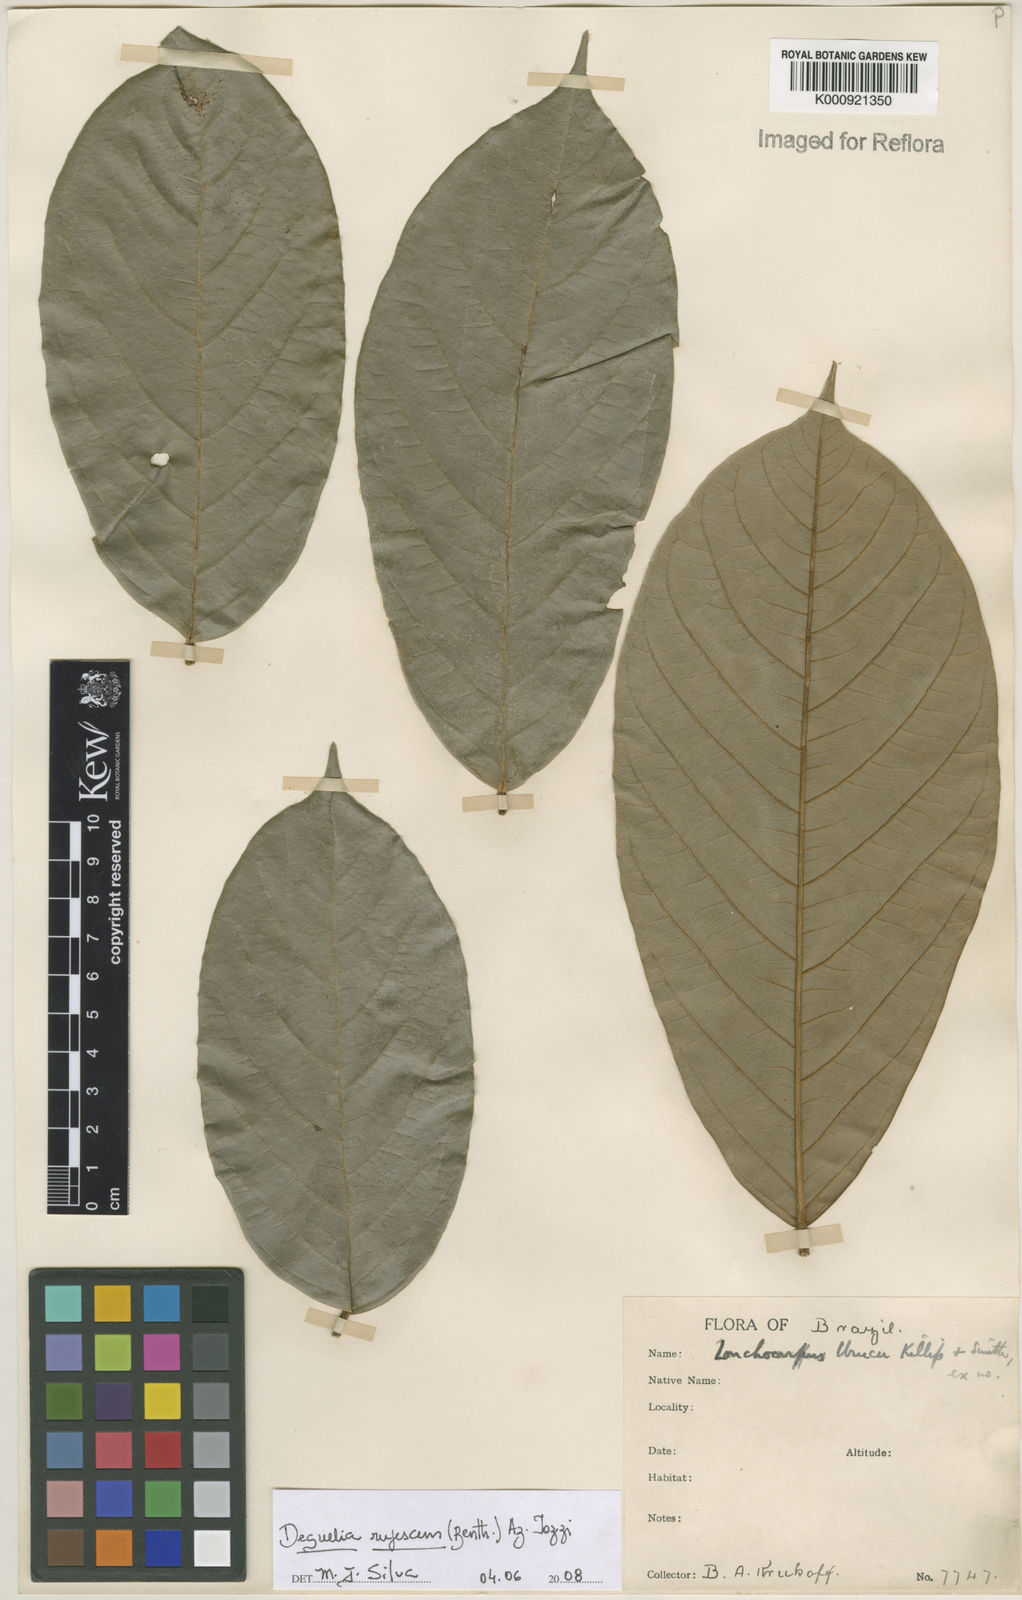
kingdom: Plantae
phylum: Tracheophyta
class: Magnoliopsida
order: Fabales
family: Fabaceae
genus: Deguelia
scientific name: Deguelia
